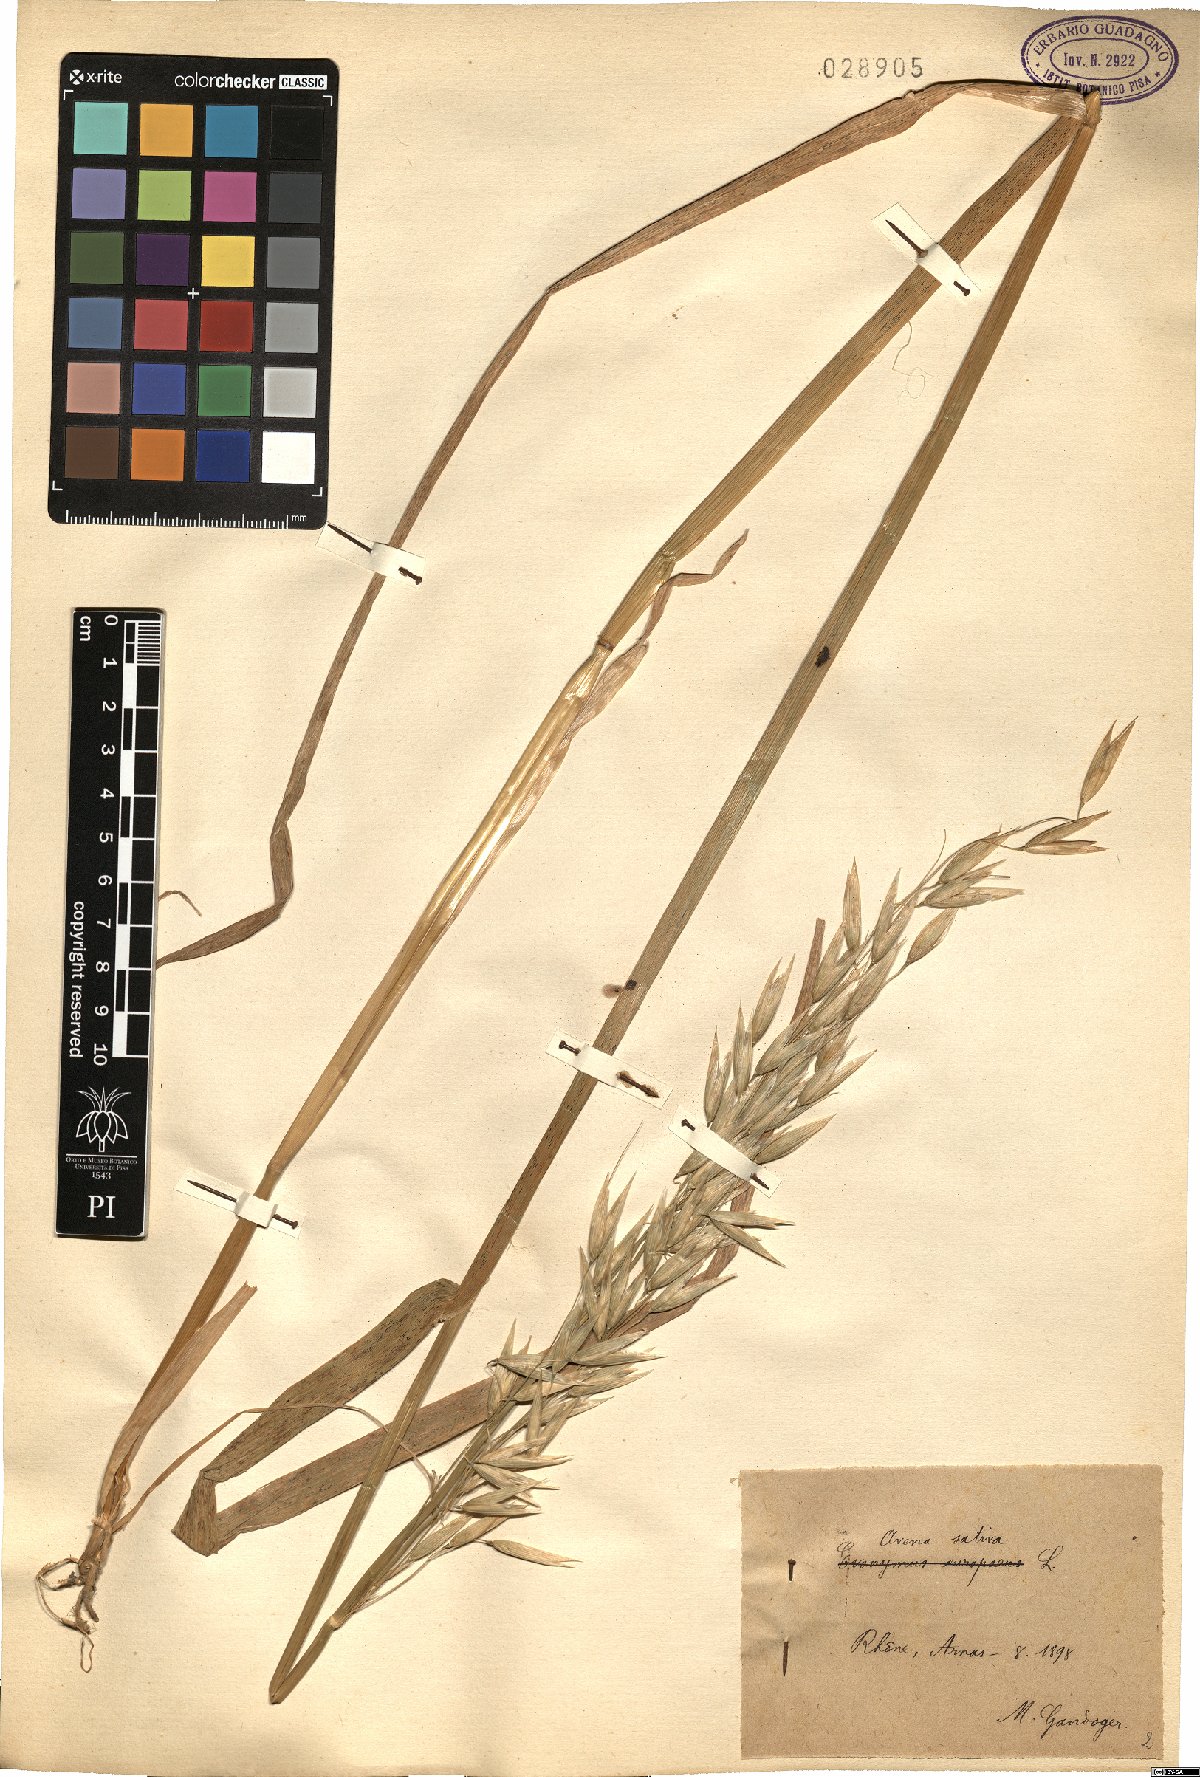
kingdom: Plantae
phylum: Tracheophyta
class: Liliopsida
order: Poales
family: Poaceae
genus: Avena
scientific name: Avena sativa
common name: Oat
